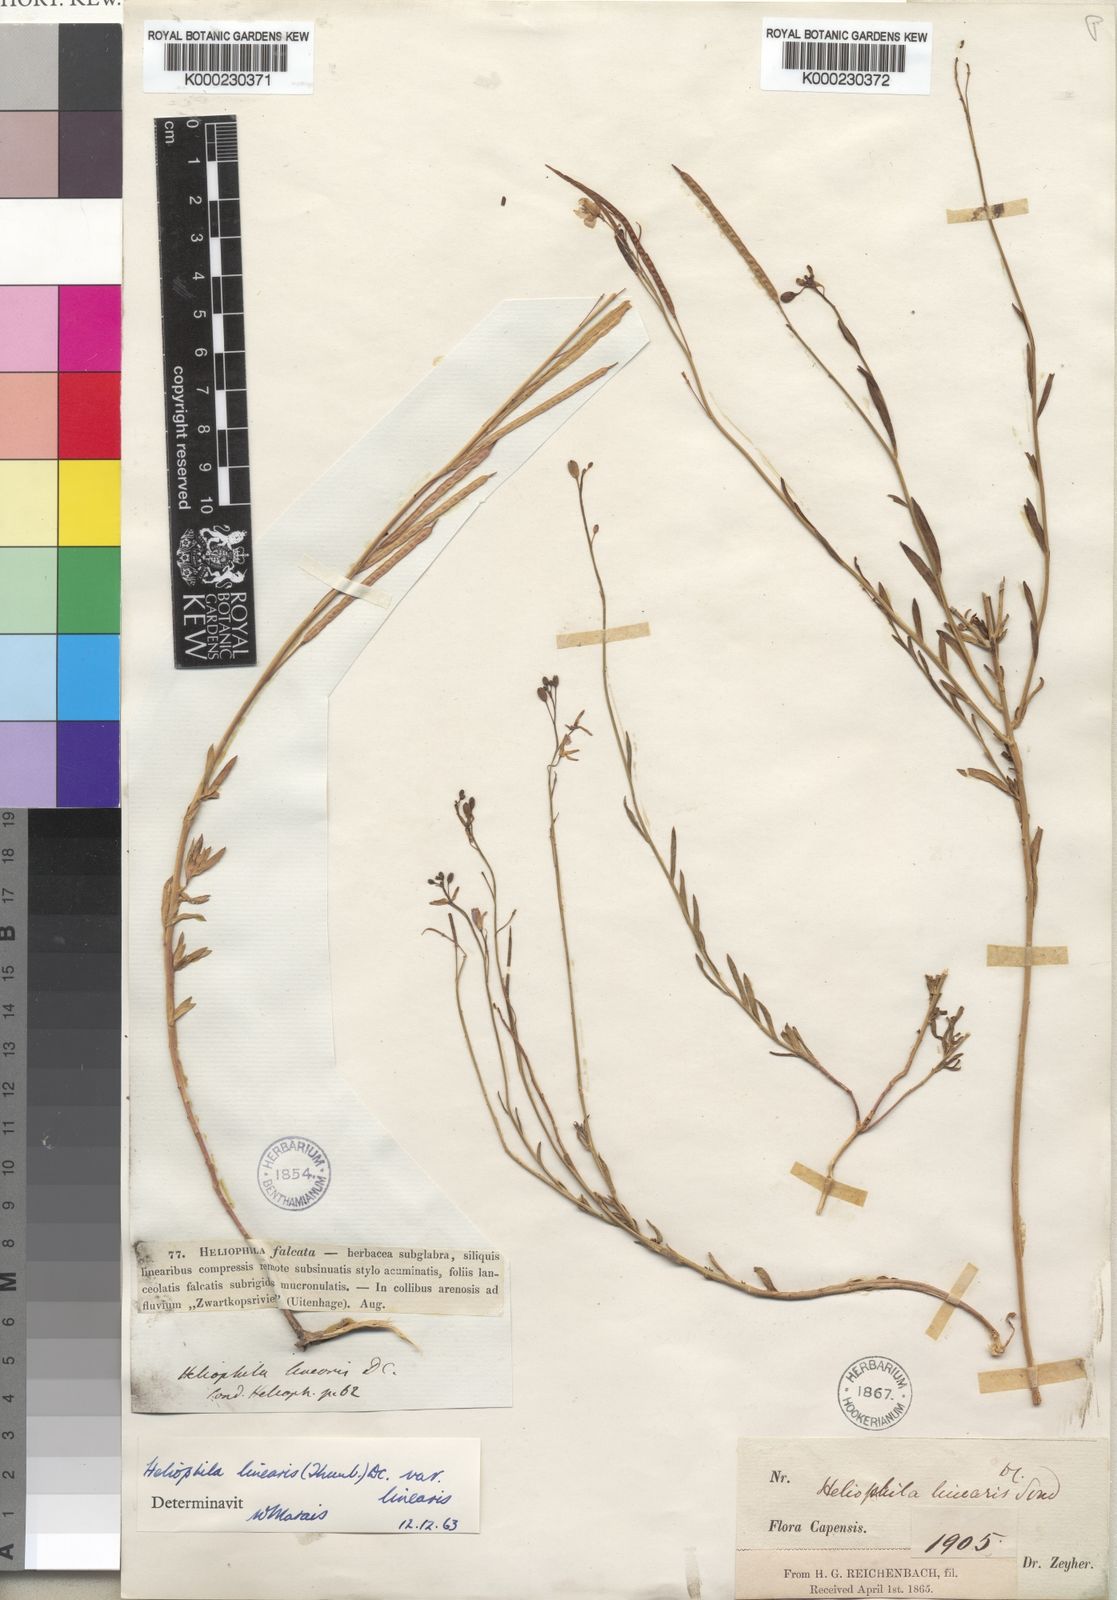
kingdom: Plantae
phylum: Tracheophyta
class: Magnoliopsida
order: Brassicales
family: Brassicaceae
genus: Heliophila
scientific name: Heliophila linearis
